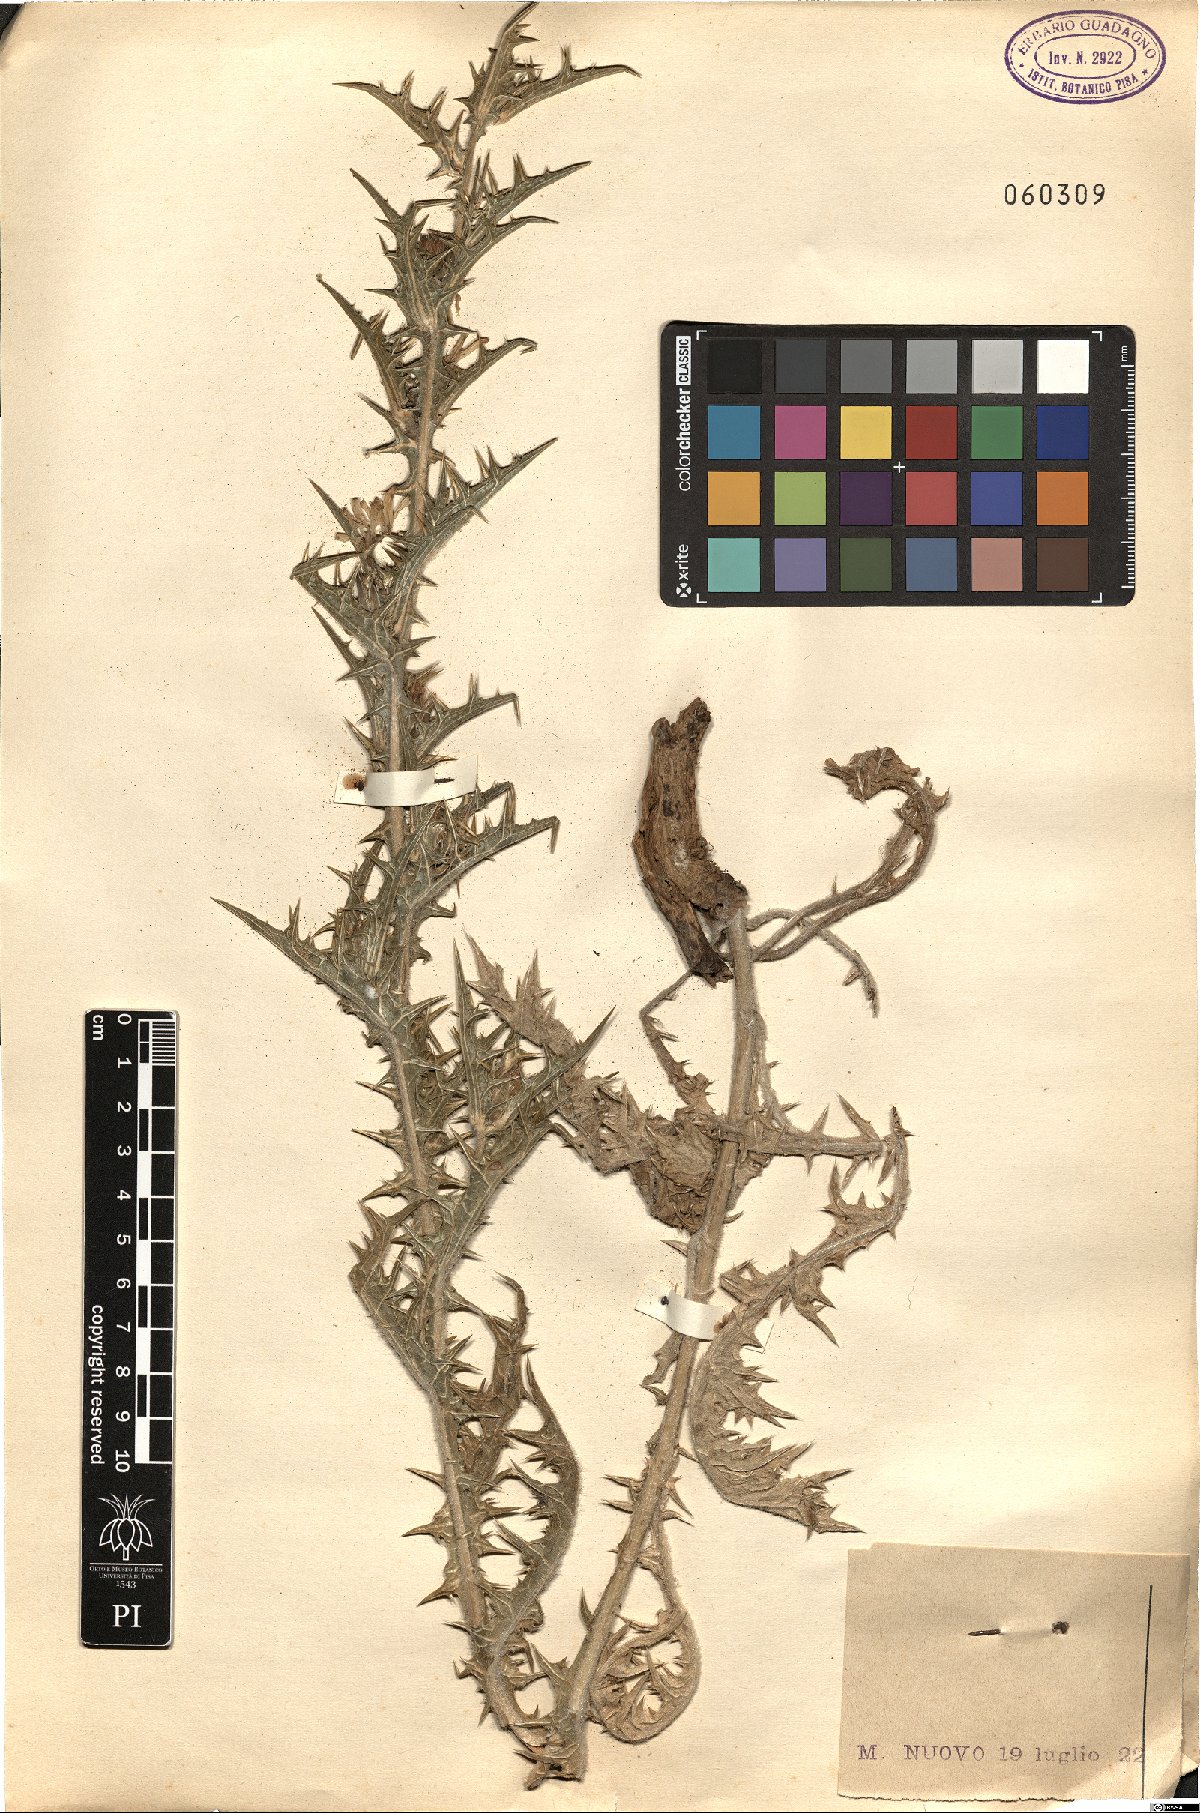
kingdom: Plantae
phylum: Tracheophyta
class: Magnoliopsida
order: Asterales
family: Asteraceae
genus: Carthamus
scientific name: Carthamus lanatus
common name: Downy safflower
